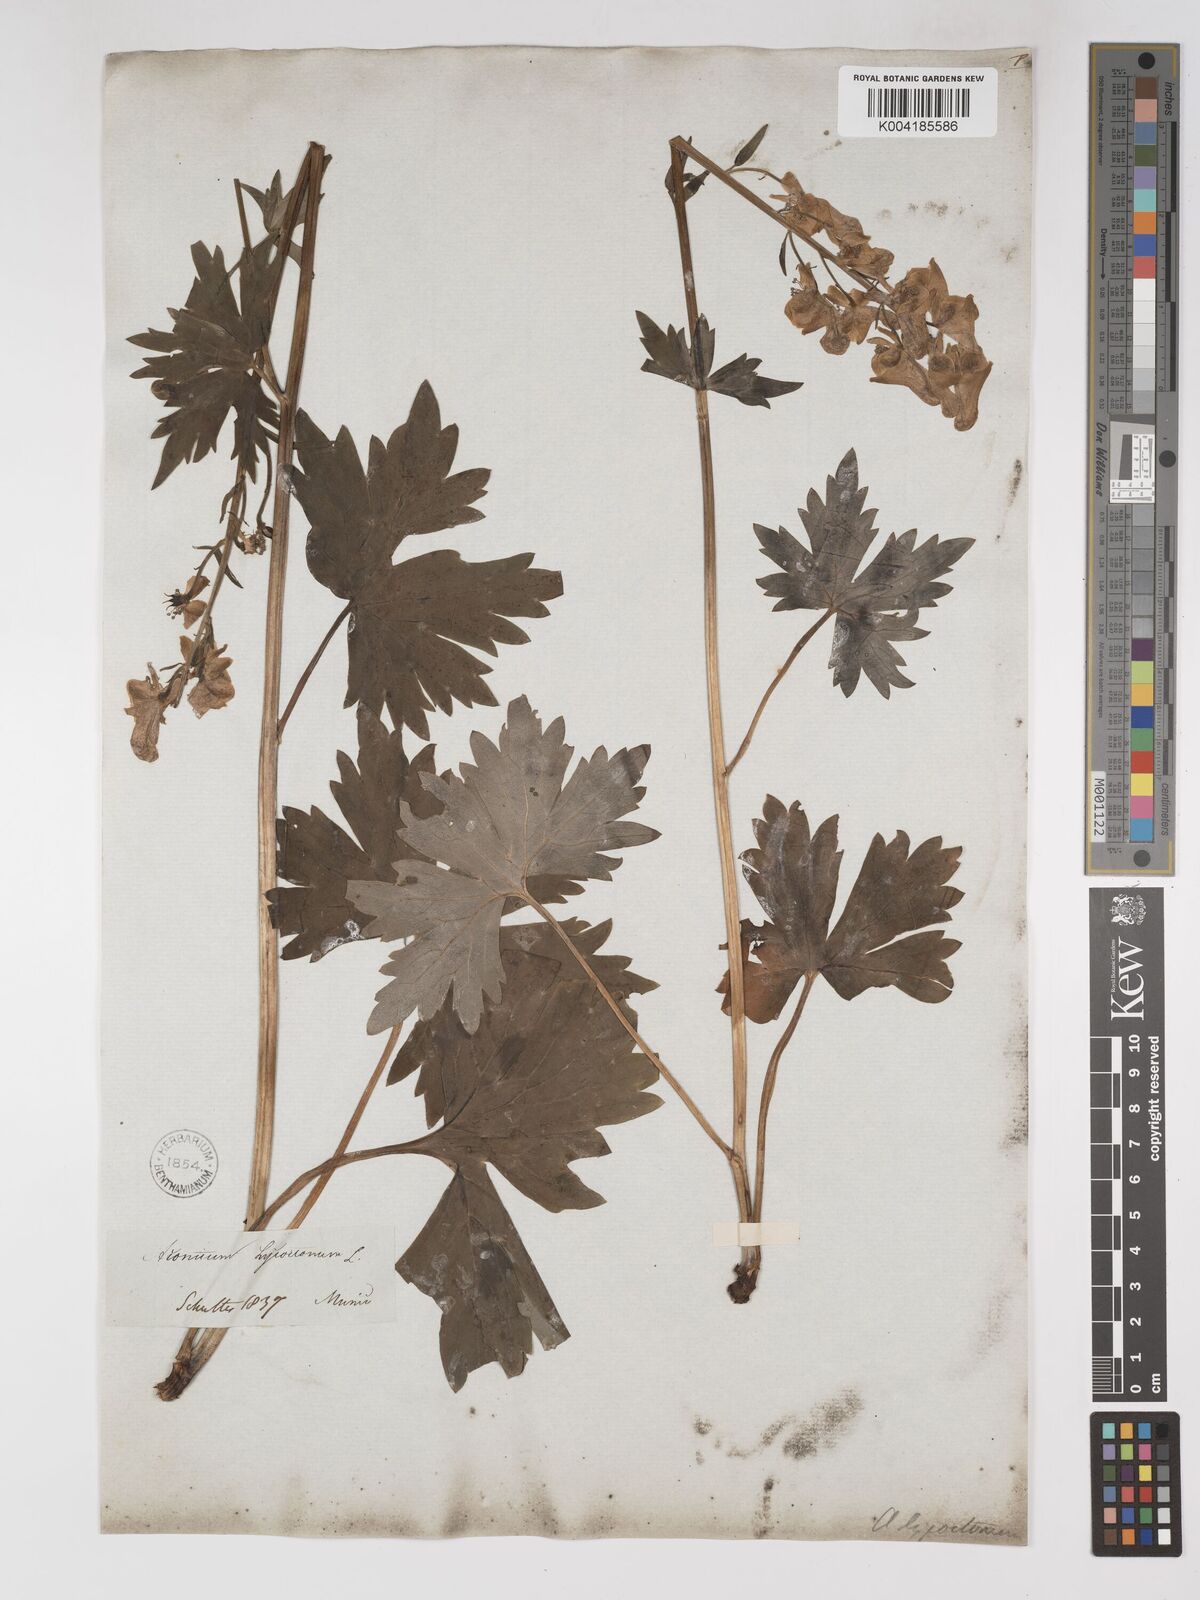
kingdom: Plantae
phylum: Tracheophyta
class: Magnoliopsida
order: Ranunculales
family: Ranunculaceae
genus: Aconitum
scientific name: Aconitum lycoctonum
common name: Wolf's-bane
